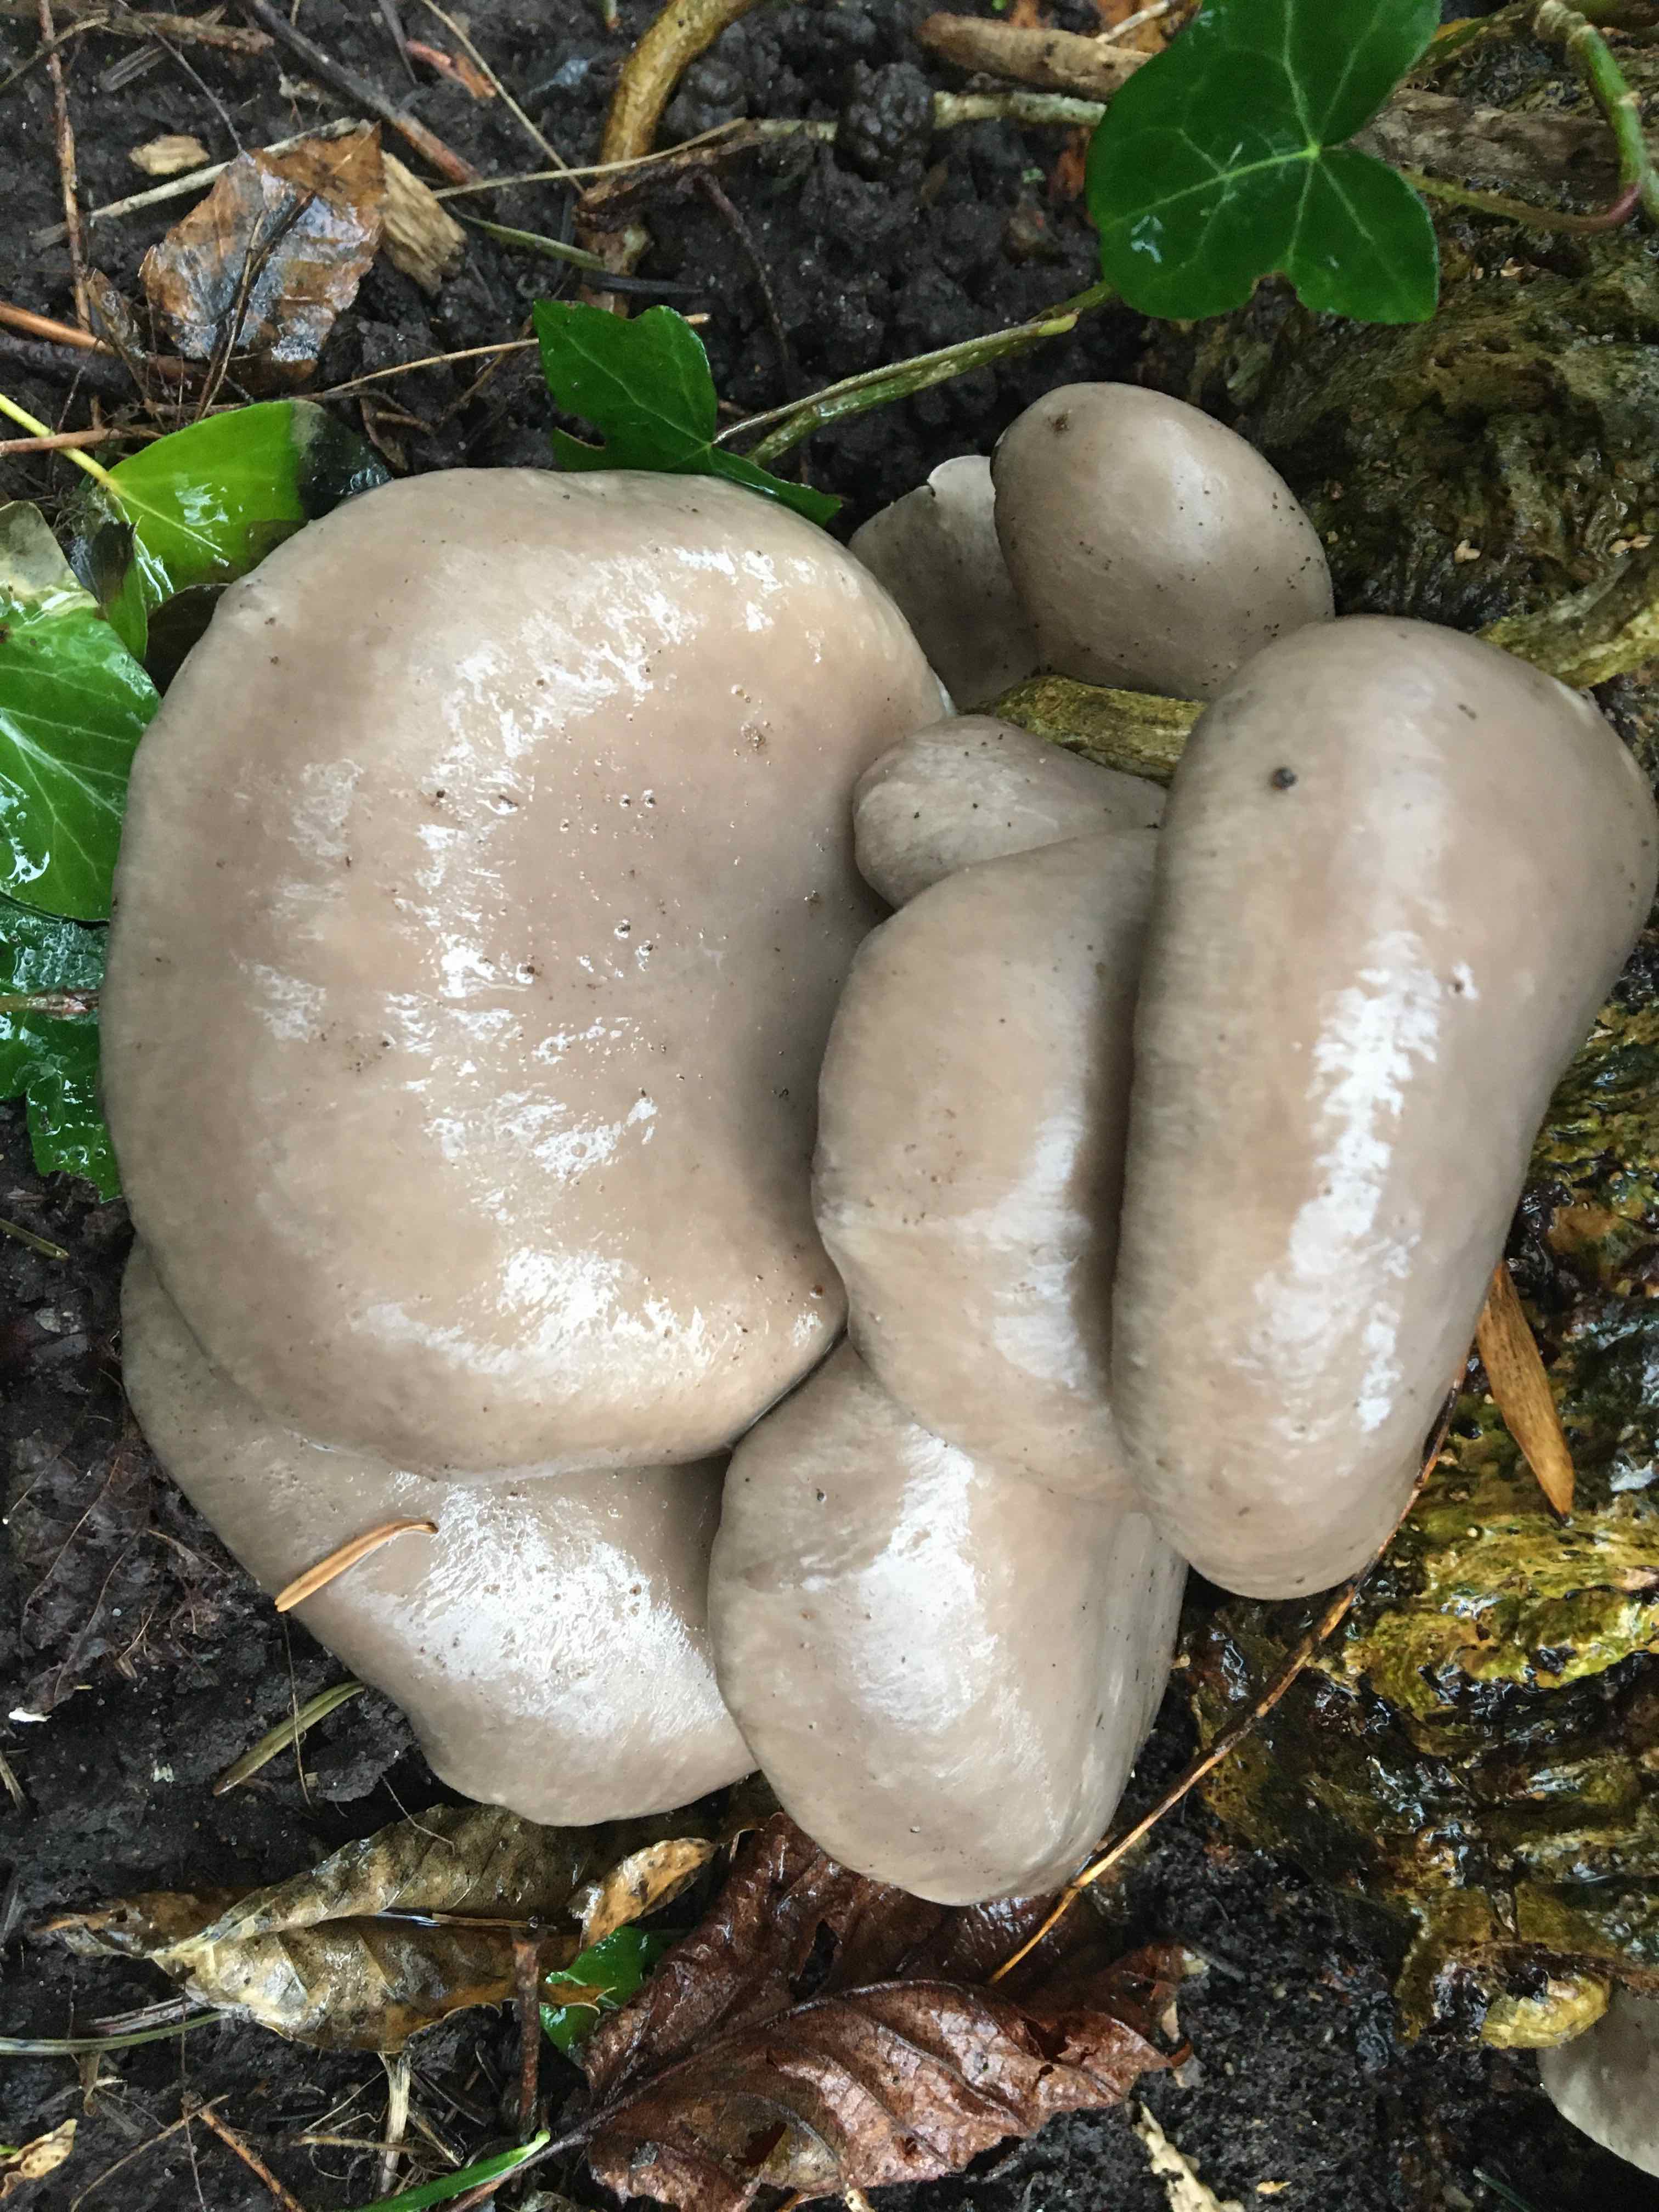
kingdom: Fungi
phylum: Basidiomycota
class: Agaricomycetes
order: Agaricales
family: Pleurotaceae
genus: Pleurotus
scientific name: Pleurotus ostreatus
